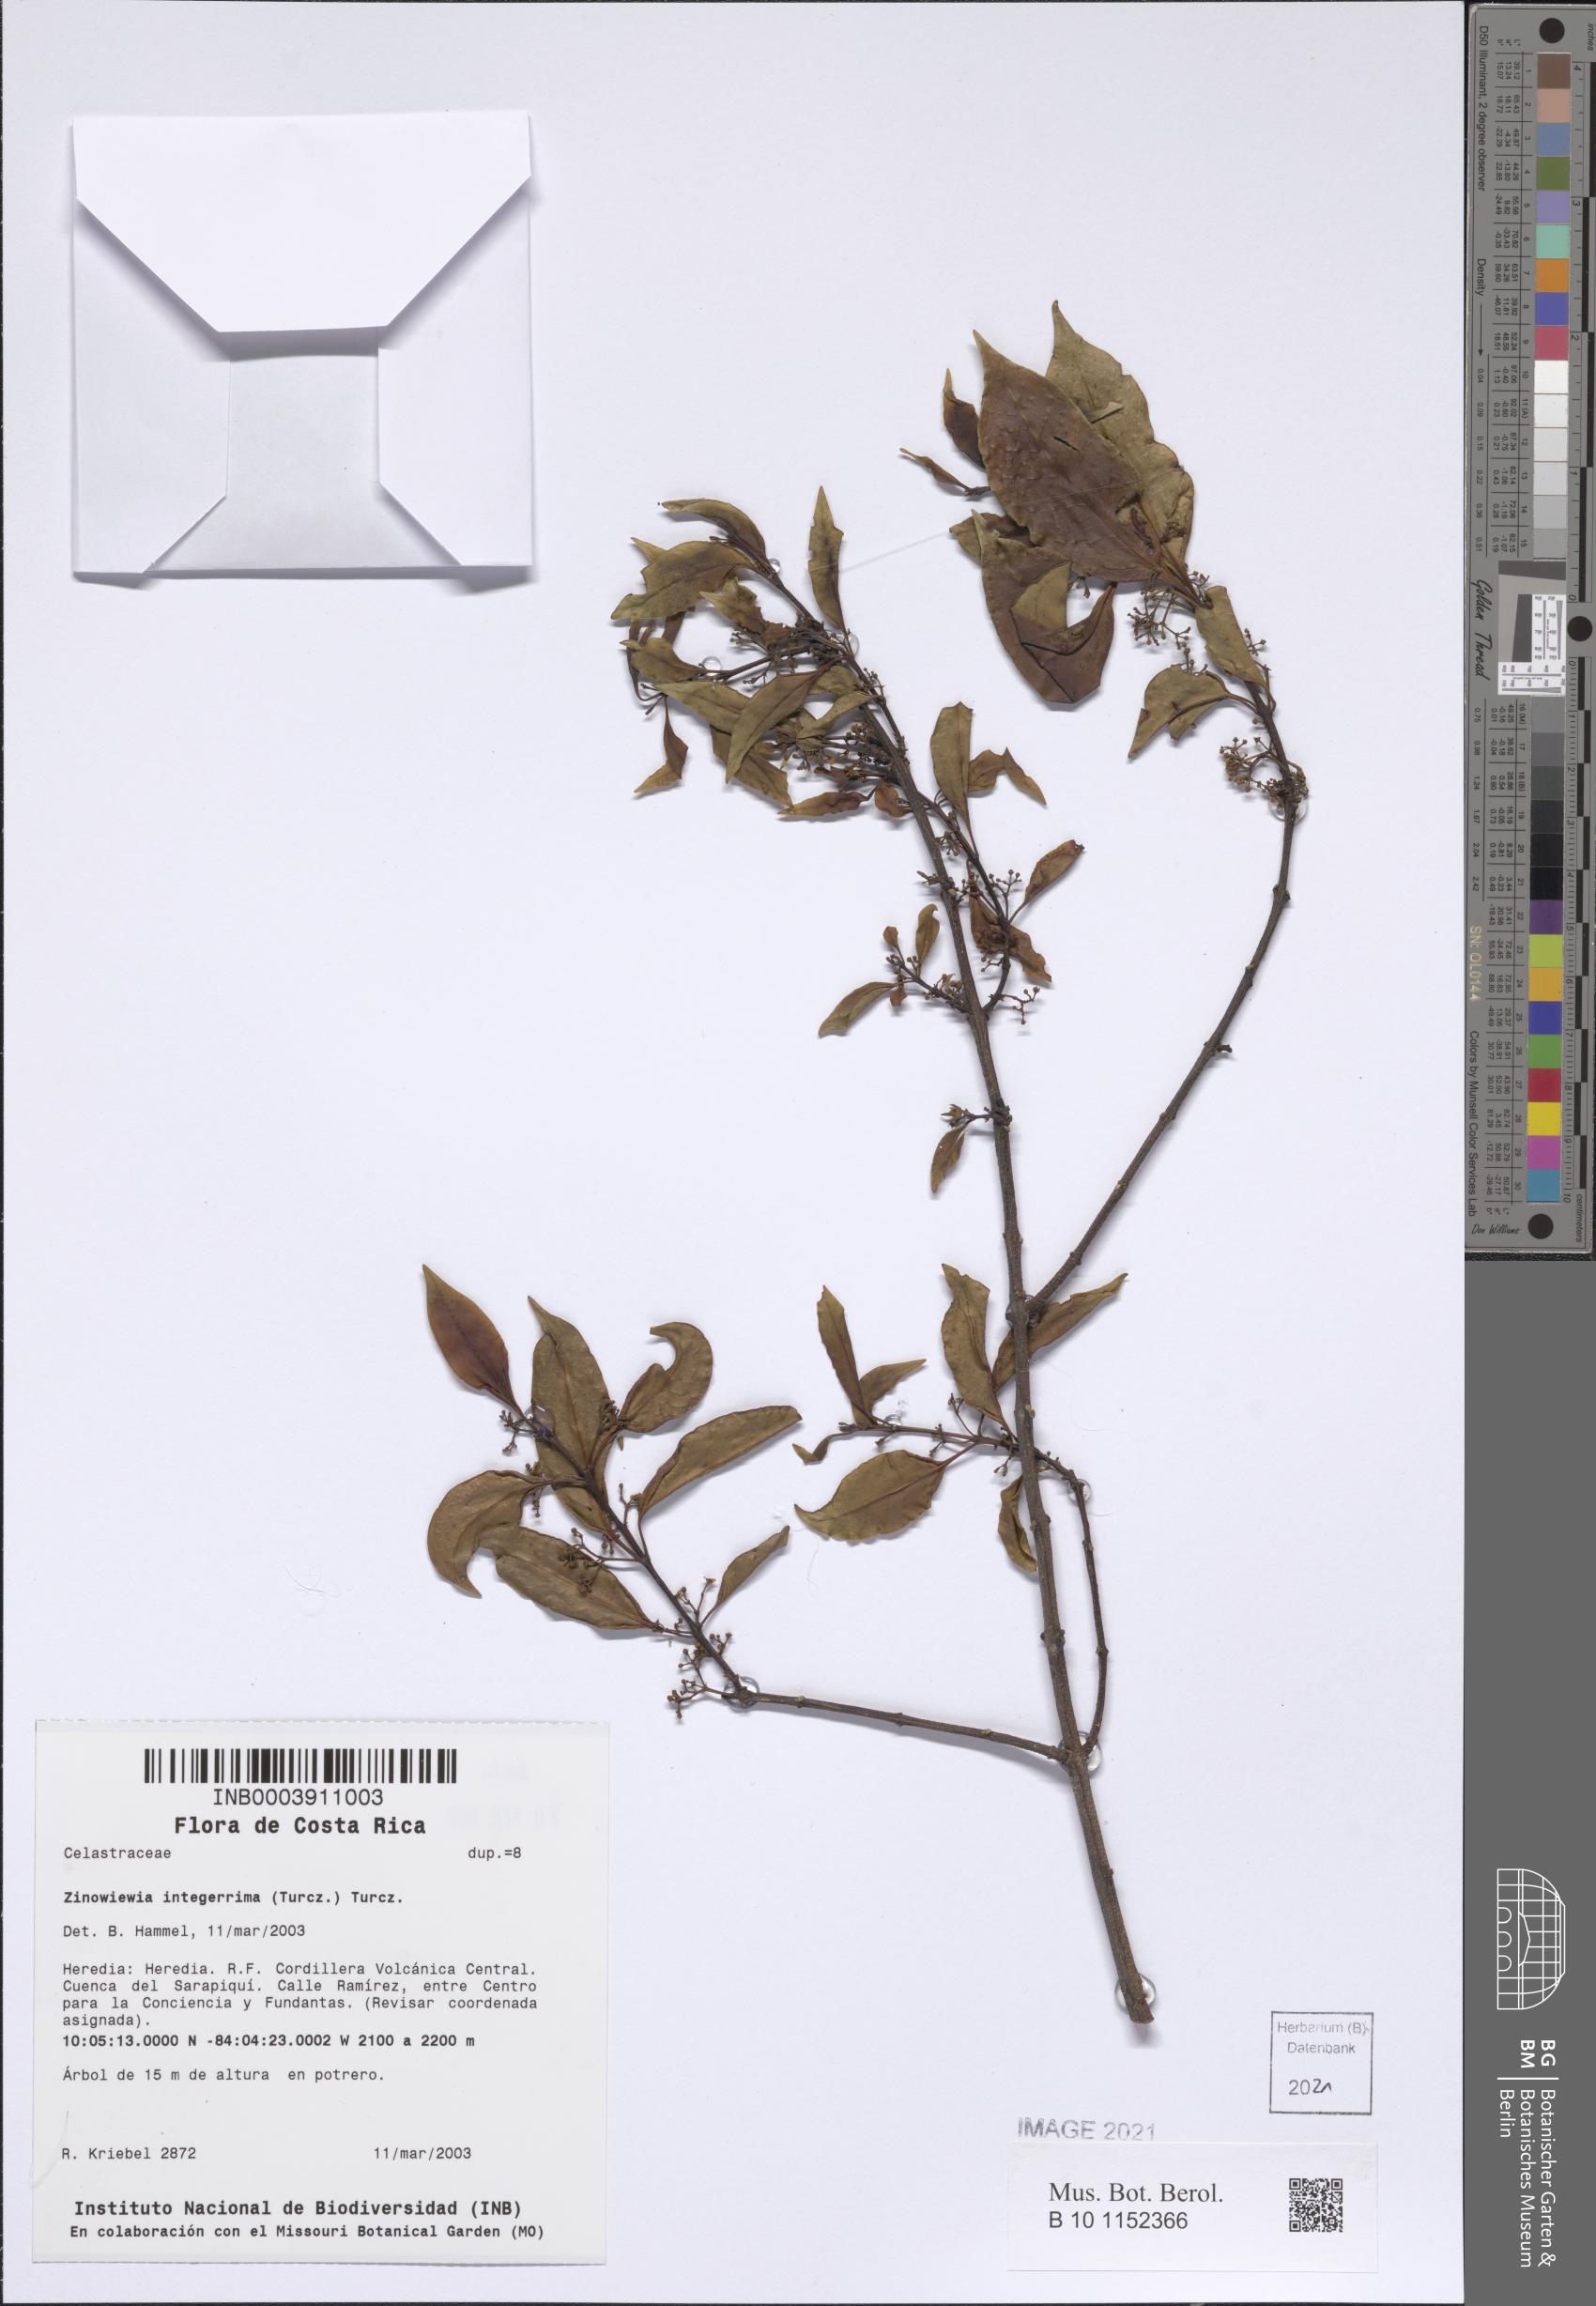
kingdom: Plantae
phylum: Tracheophyta
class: Magnoliopsida
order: Celastrales
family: Celastraceae
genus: Zinowiewia
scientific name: Zinowiewia integerrima
